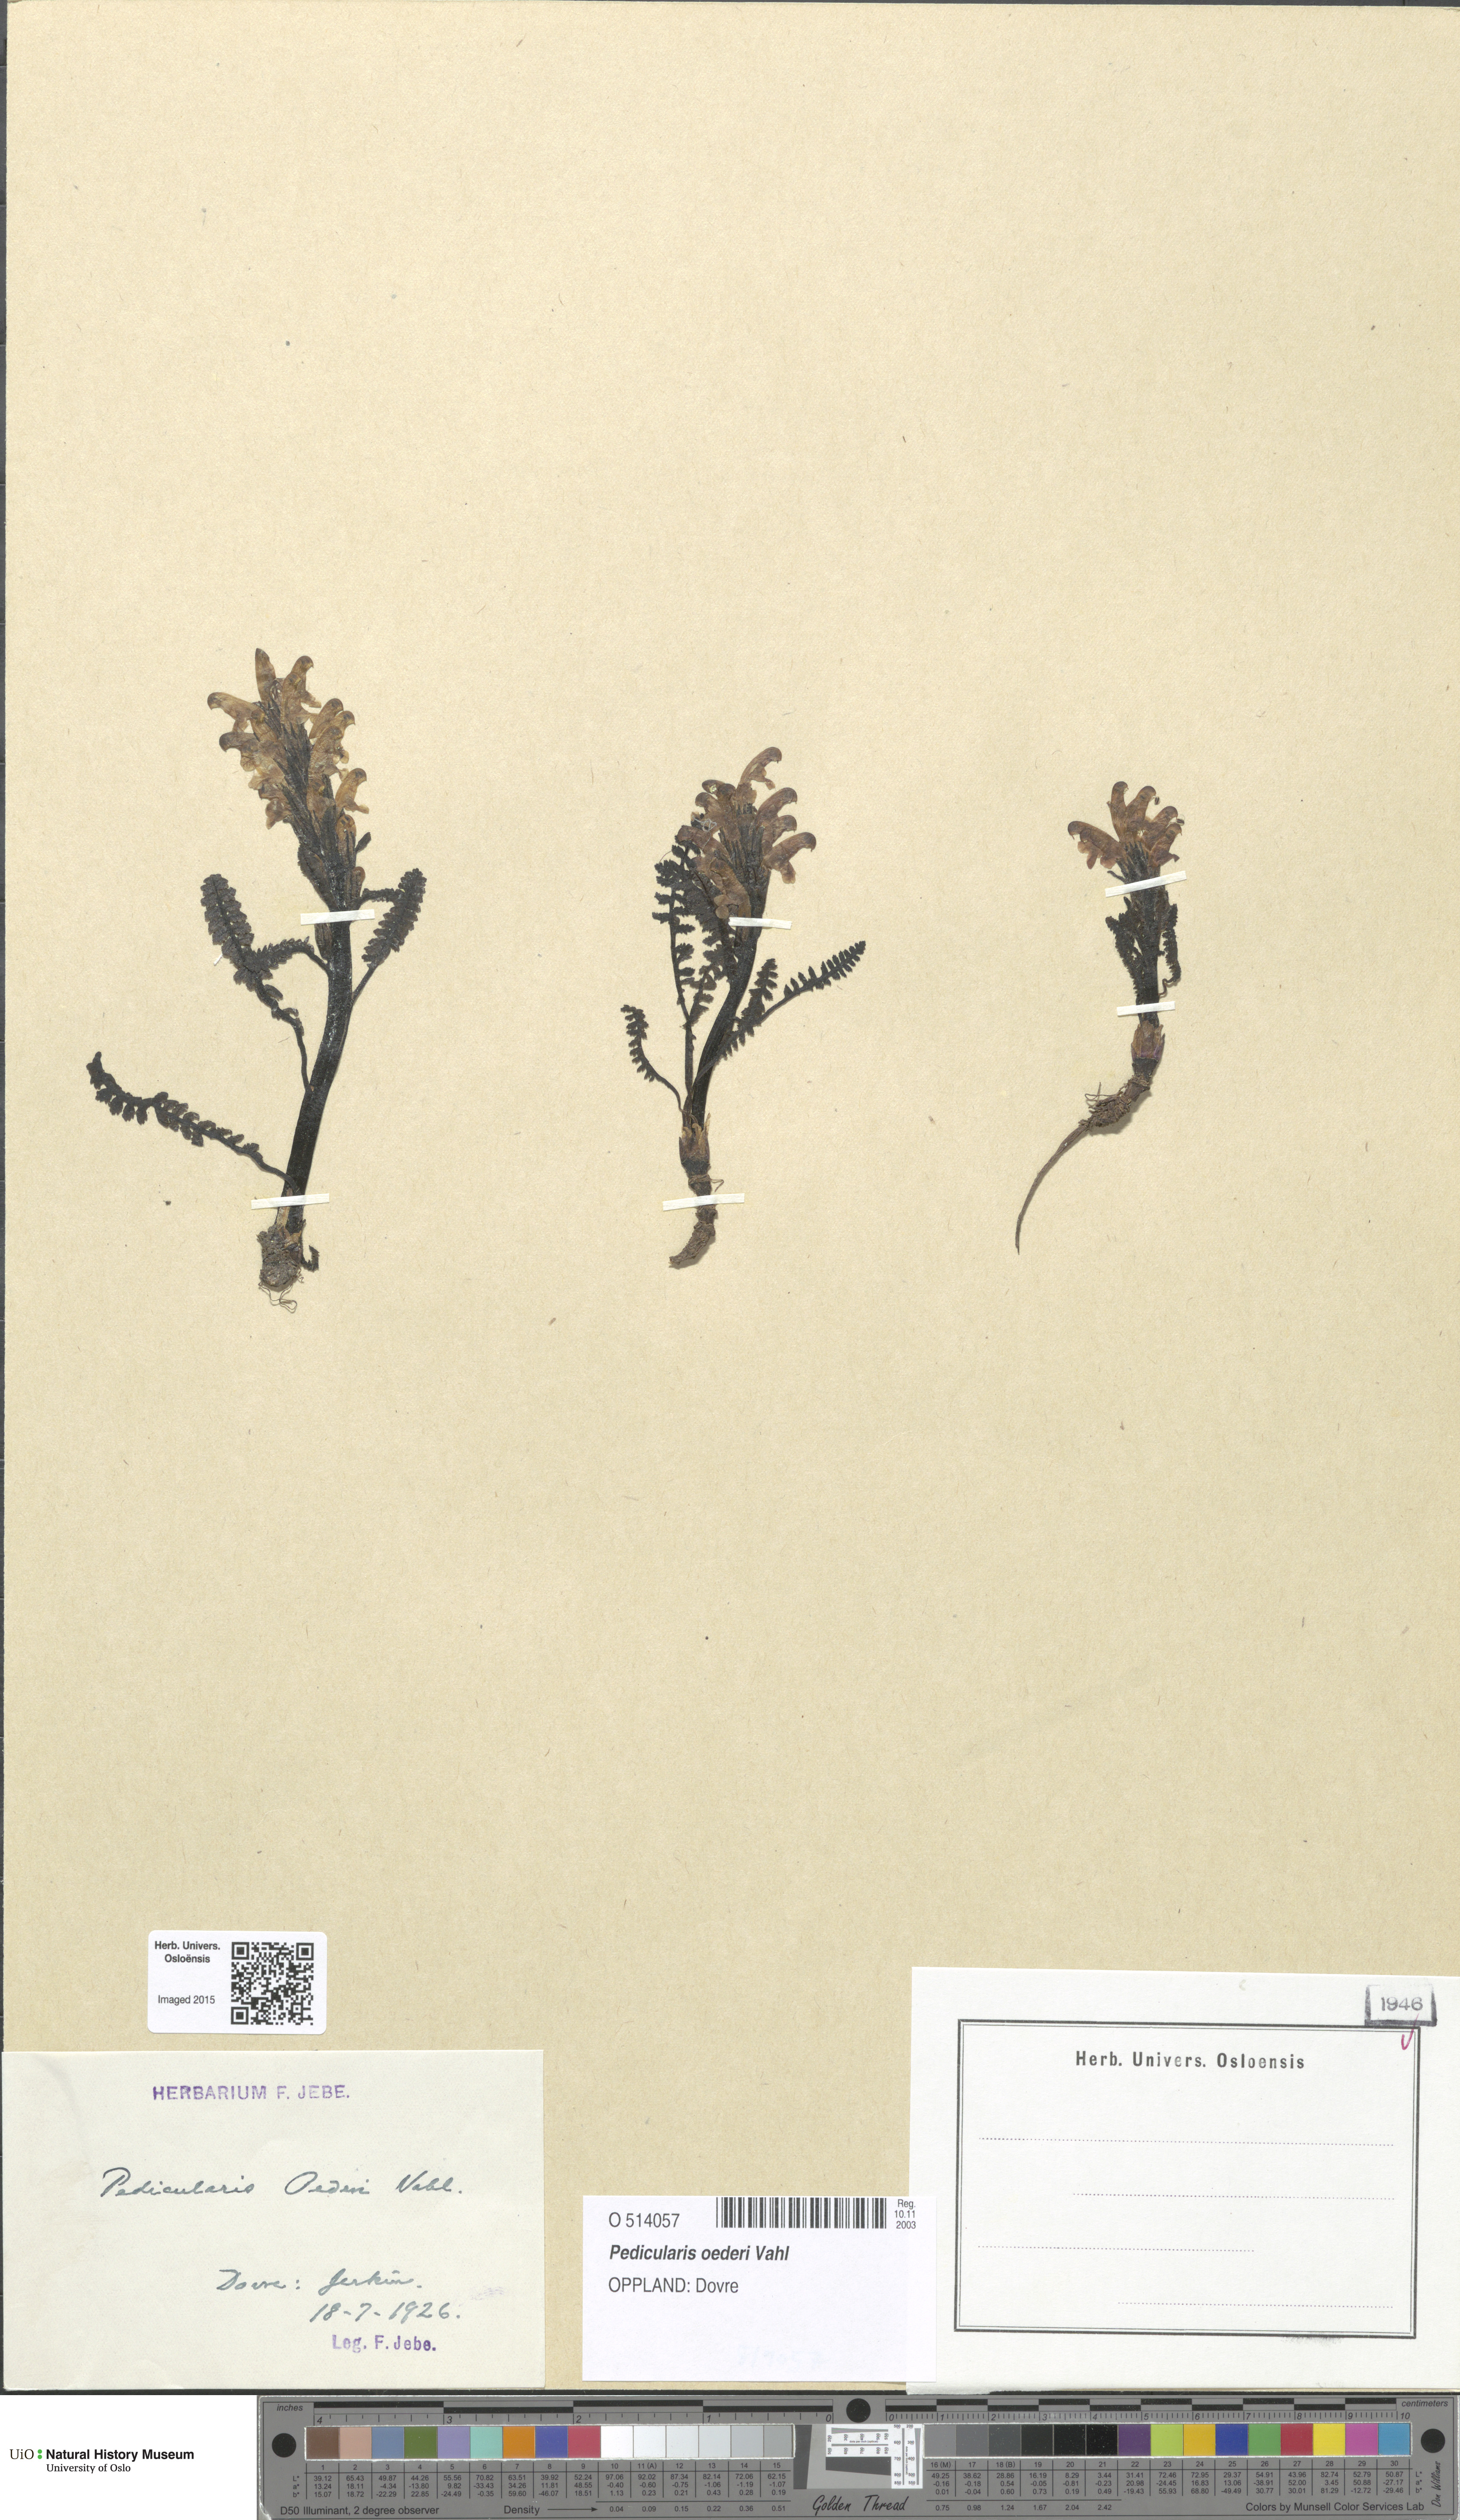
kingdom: Plantae
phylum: Tracheophyta
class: Magnoliopsida
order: Lamiales
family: Orobanchaceae
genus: Pedicularis
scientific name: Pedicularis oederi
